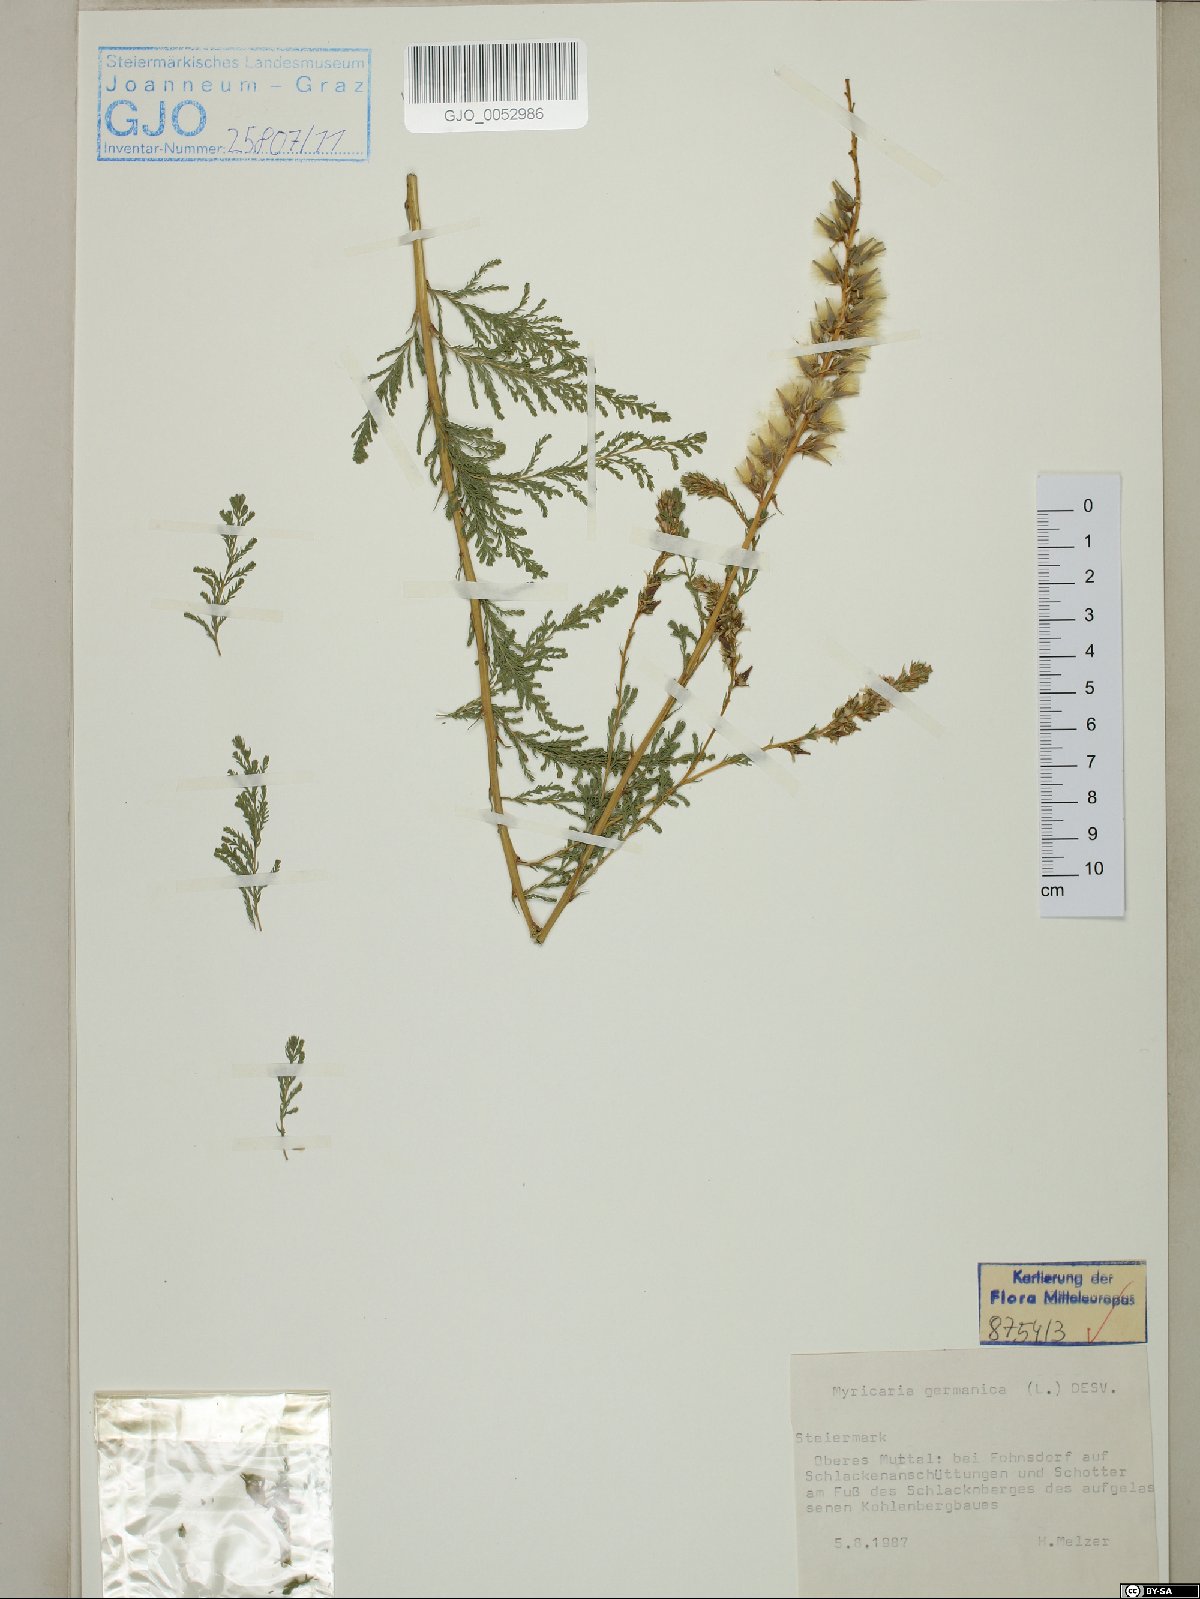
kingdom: Plantae
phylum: Tracheophyta
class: Magnoliopsida
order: Caryophyllales
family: Tamaricaceae
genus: Myricaria
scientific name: Myricaria germanica
